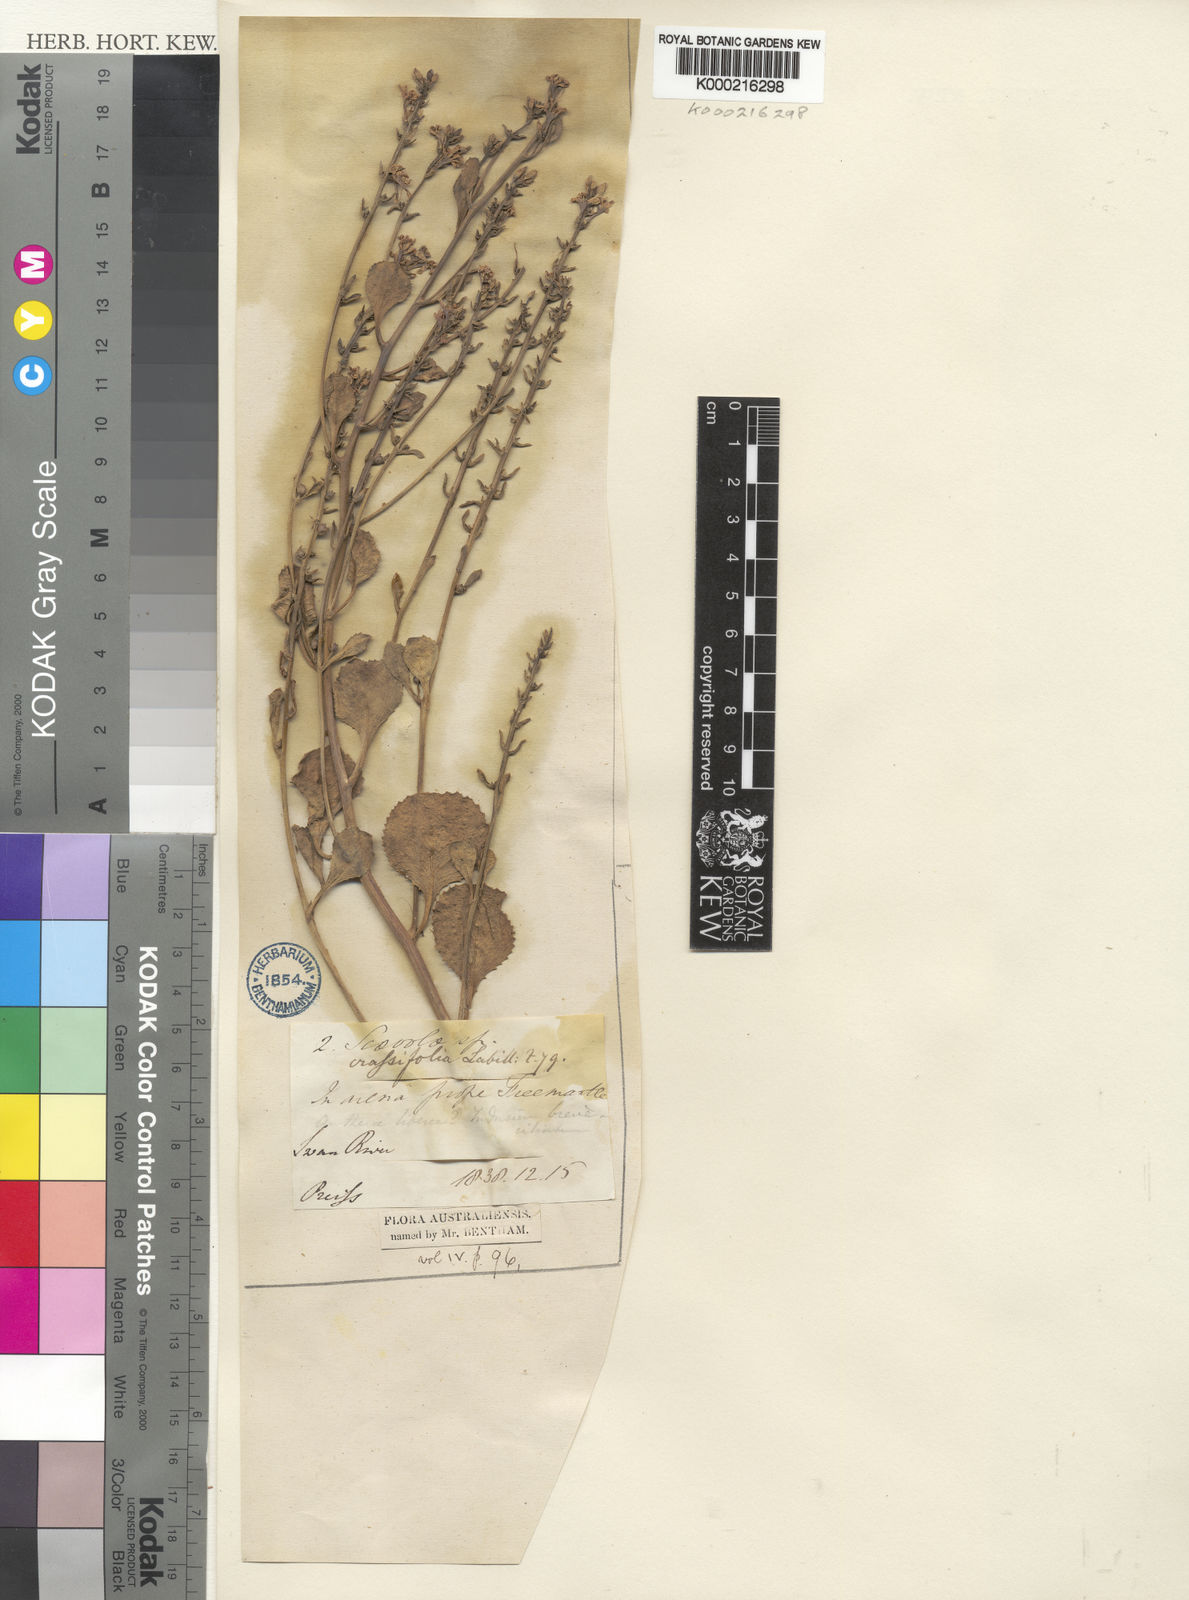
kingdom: Plantae
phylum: Tracheophyta
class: Magnoliopsida
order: Asterales
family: Goodeniaceae
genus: Scaevola
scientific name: Scaevola crassifolia
